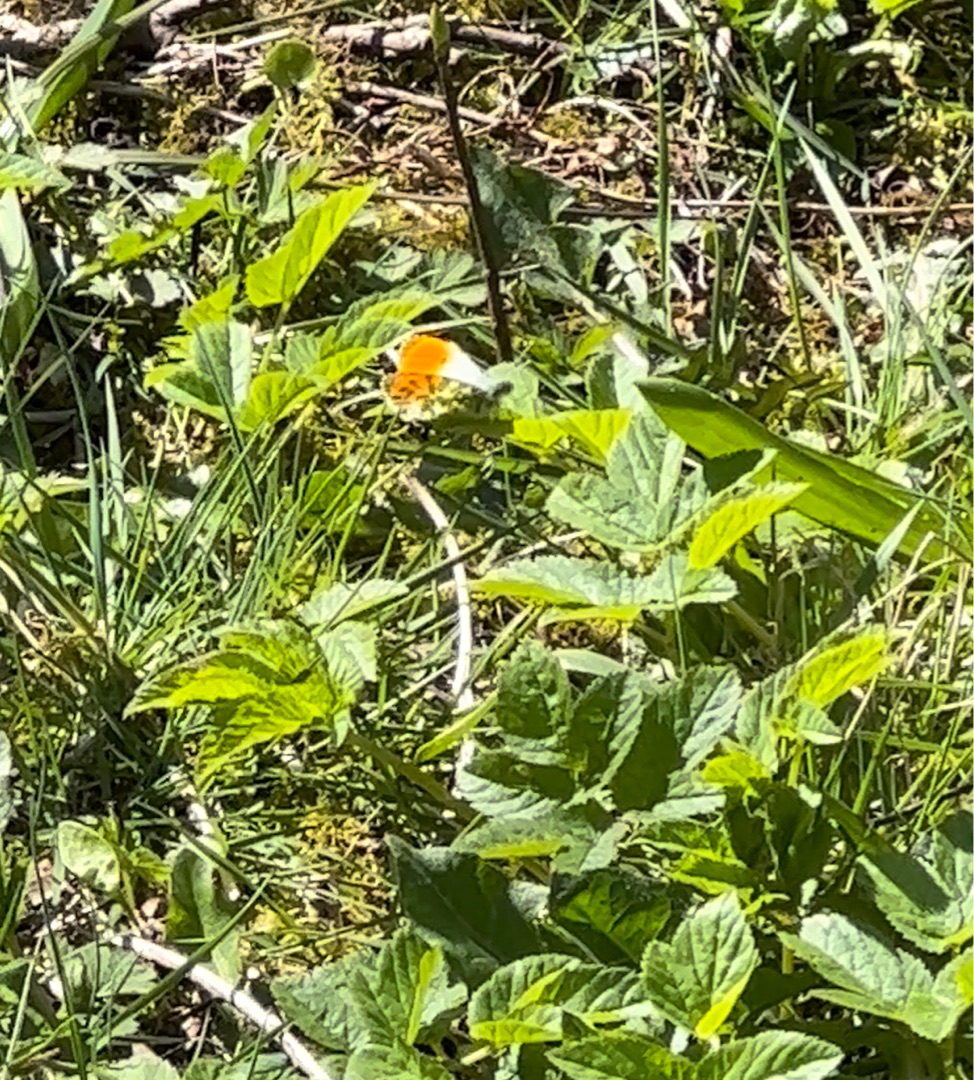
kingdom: Animalia
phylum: Arthropoda
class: Insecta
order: Lepidoptera
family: Pieridae
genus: Anthocharis
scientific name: Anthocharis cardamines
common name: Aurora
